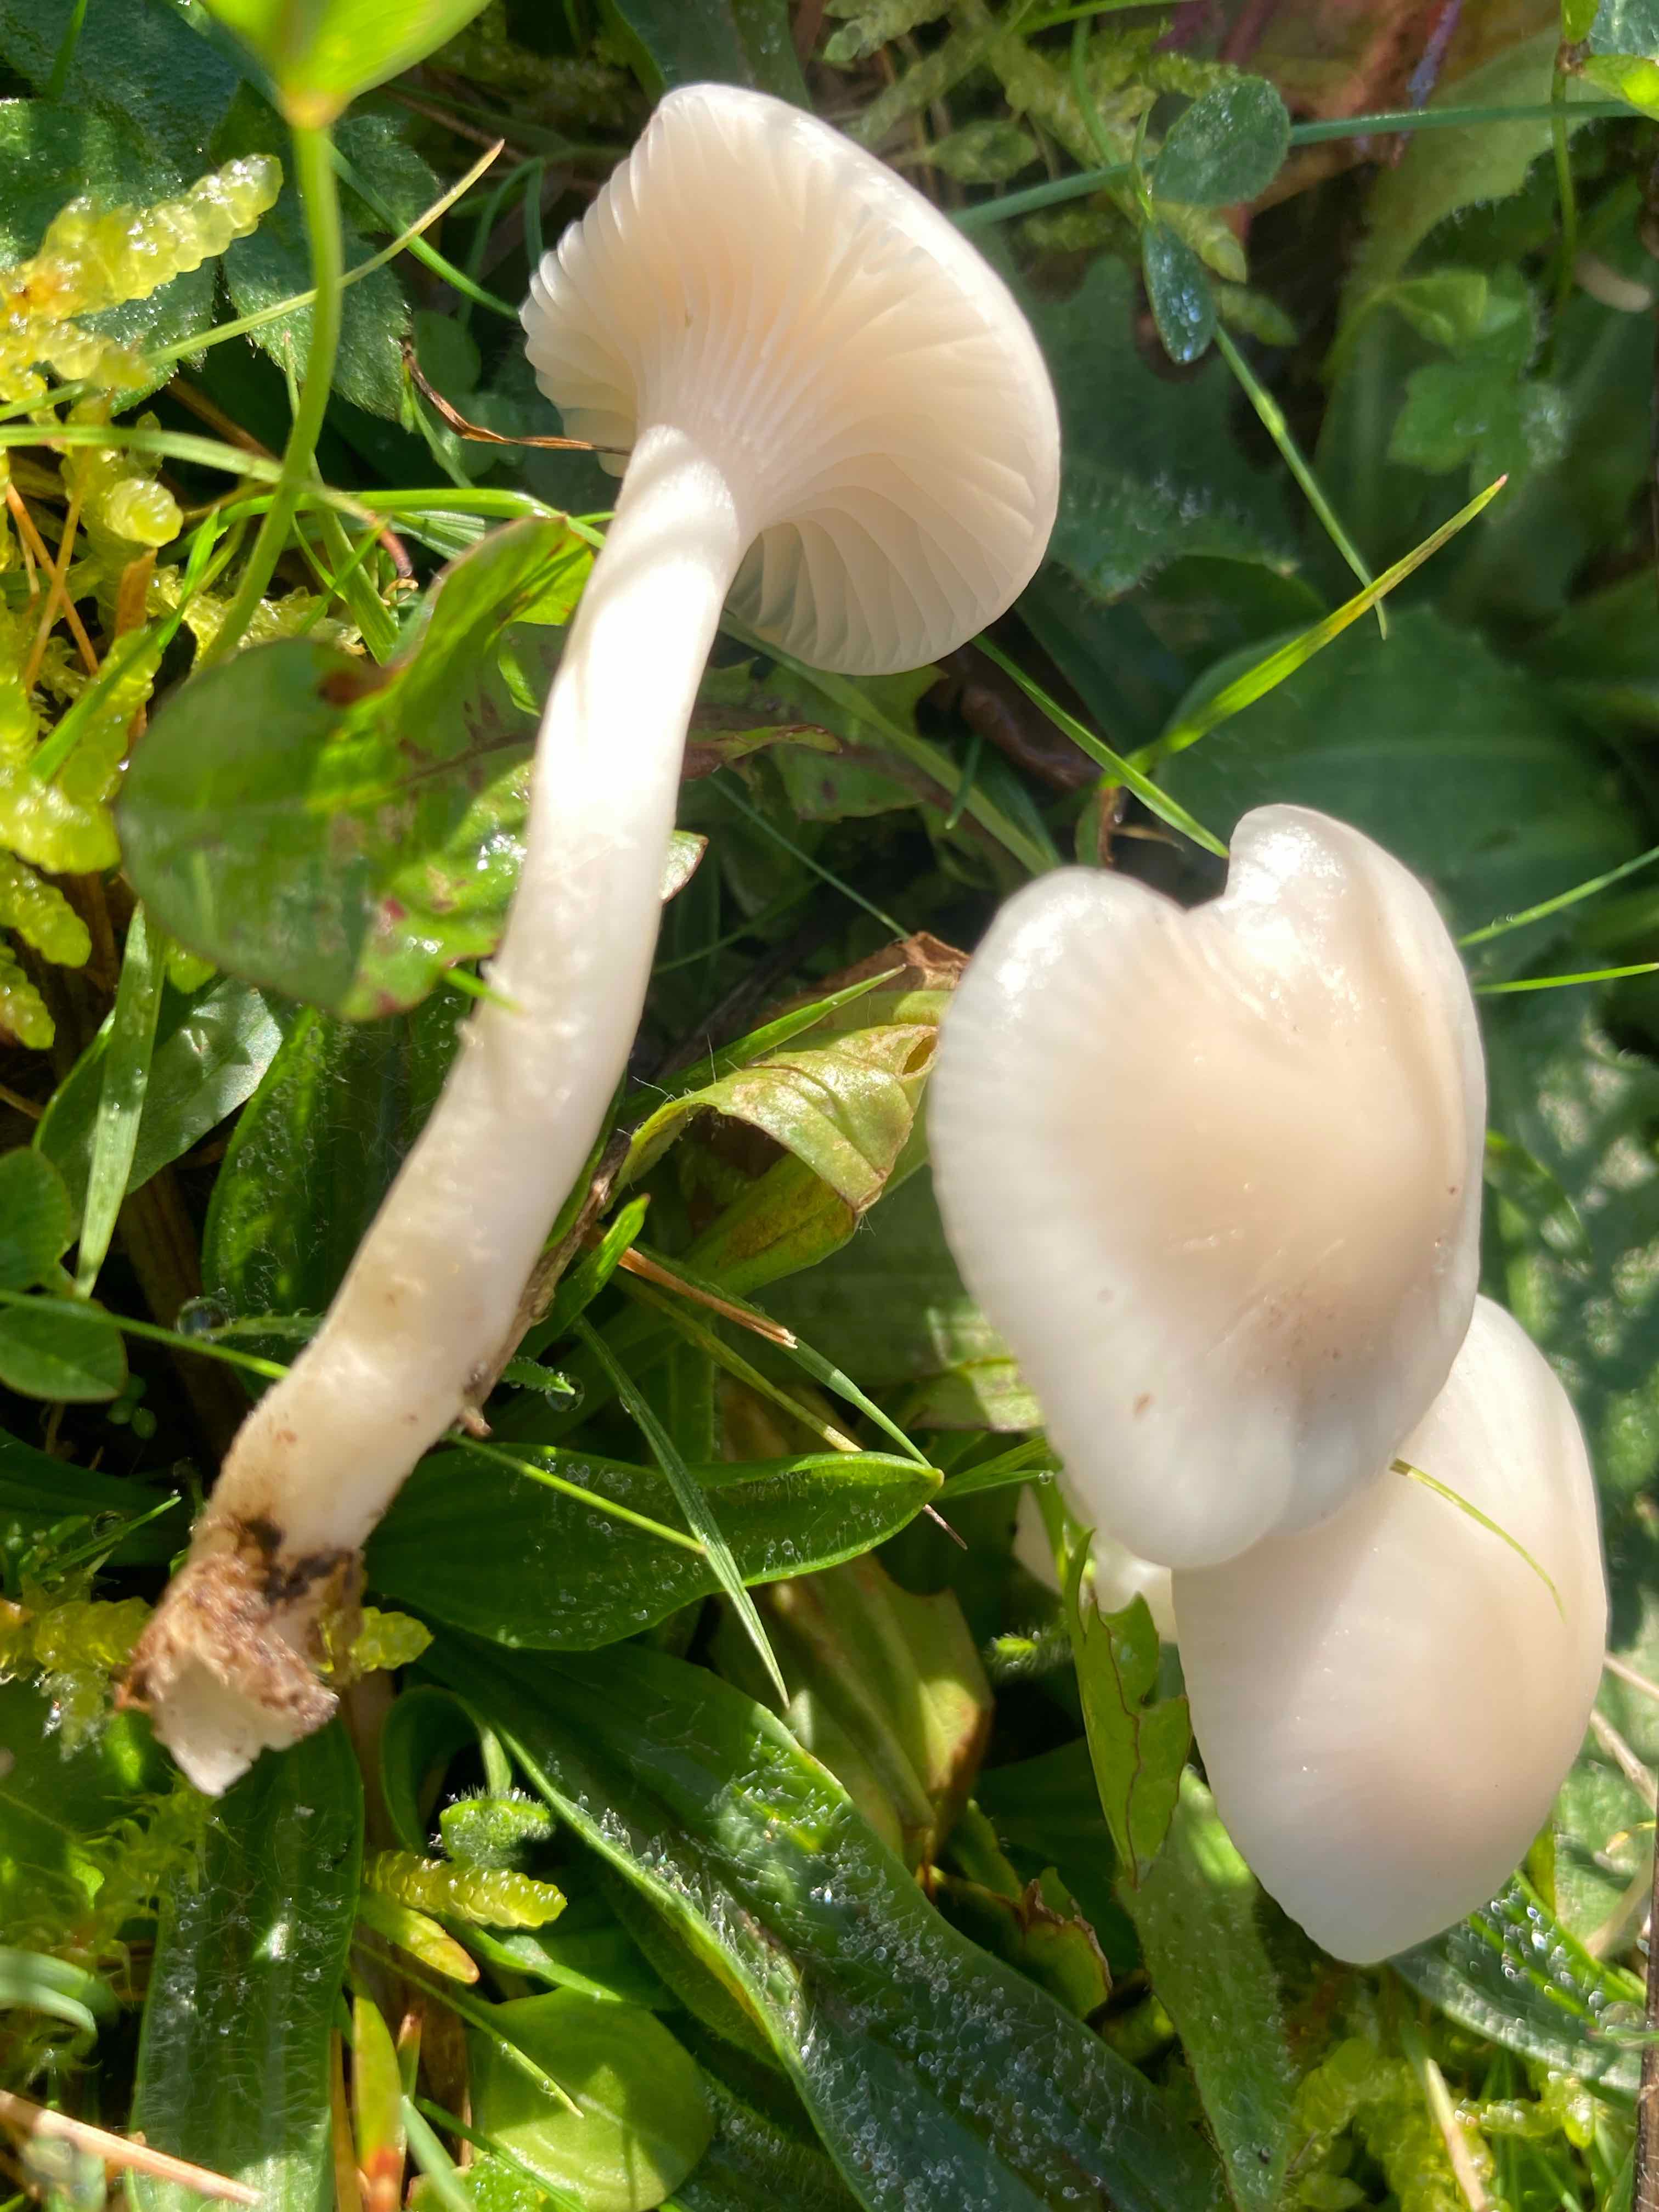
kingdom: Fungi
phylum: Basidiomycota
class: Agaricomycetes
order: Agaricales
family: Hygrophoraceae
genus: Cuphophyllus
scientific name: Cuphophyllus
